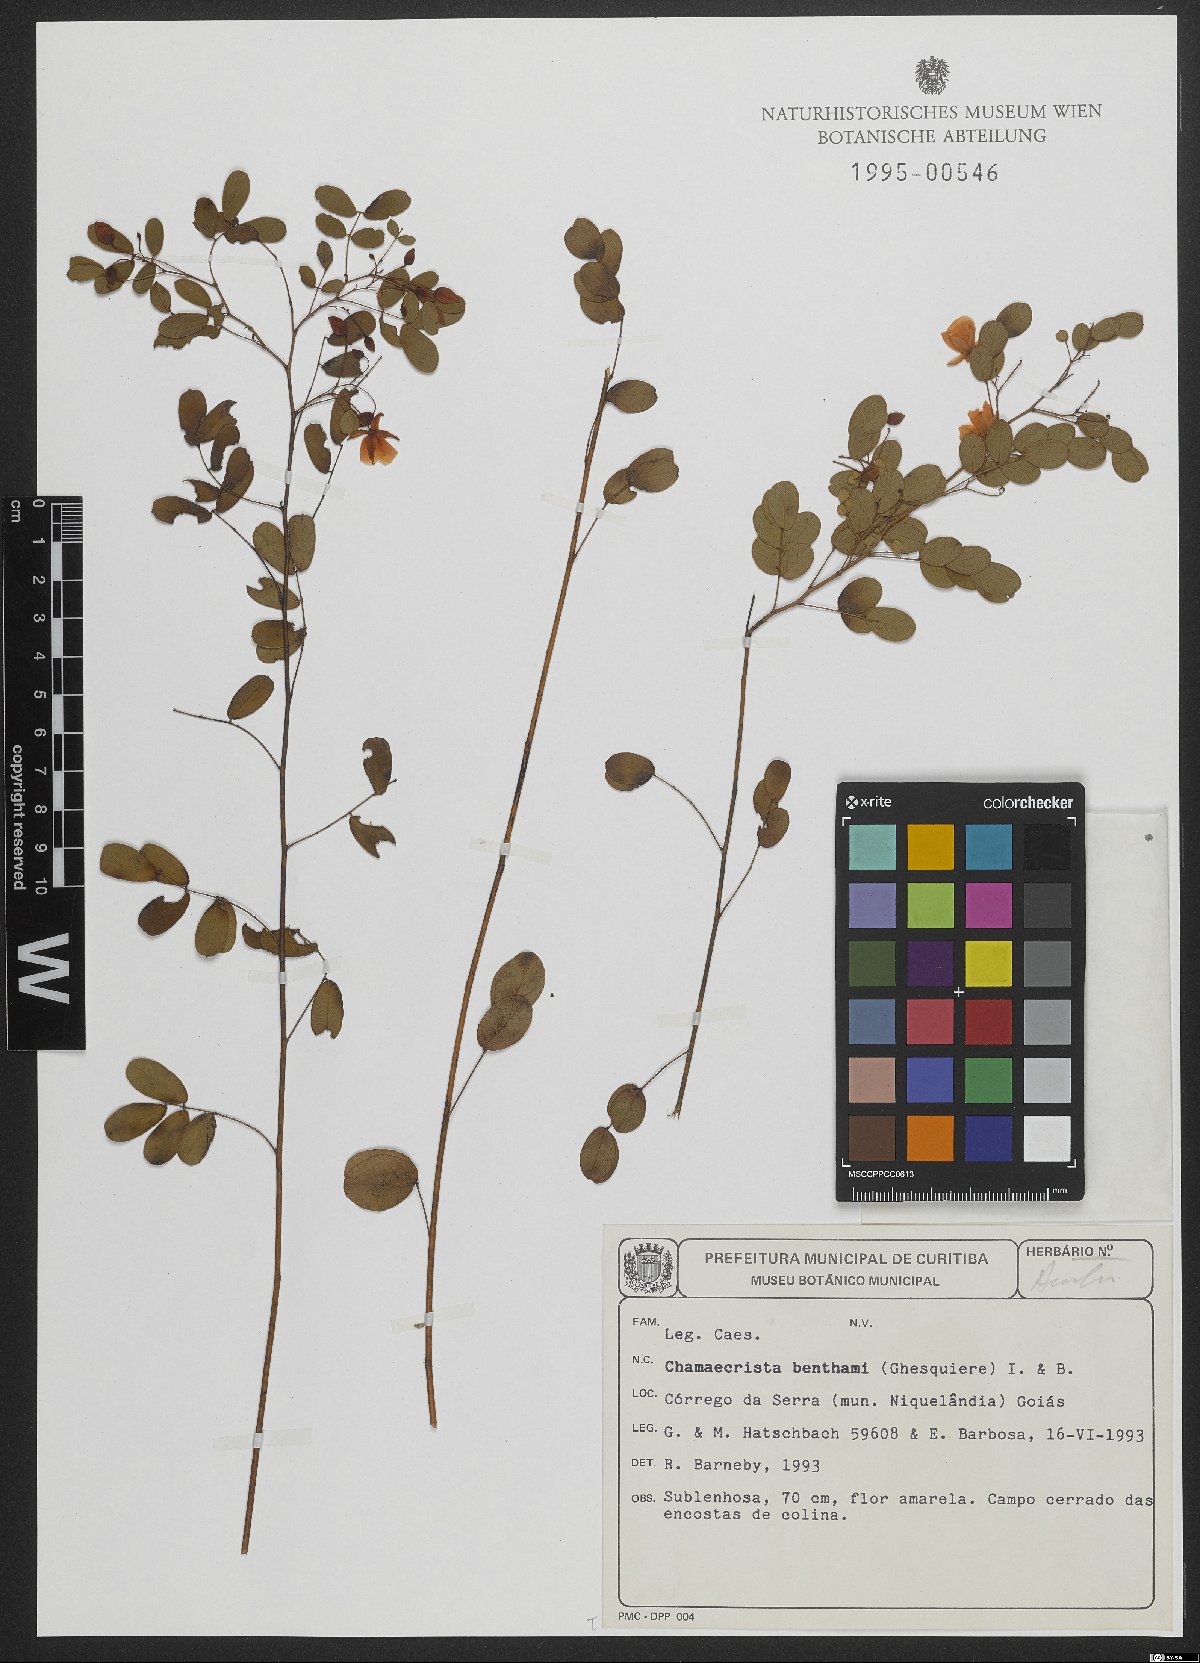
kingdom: Plantae
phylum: Tracheophyta
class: Magnoliopsida
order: Fabales
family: Fabaceae
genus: Chamaecrista
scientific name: Chamaecrista benthamii
